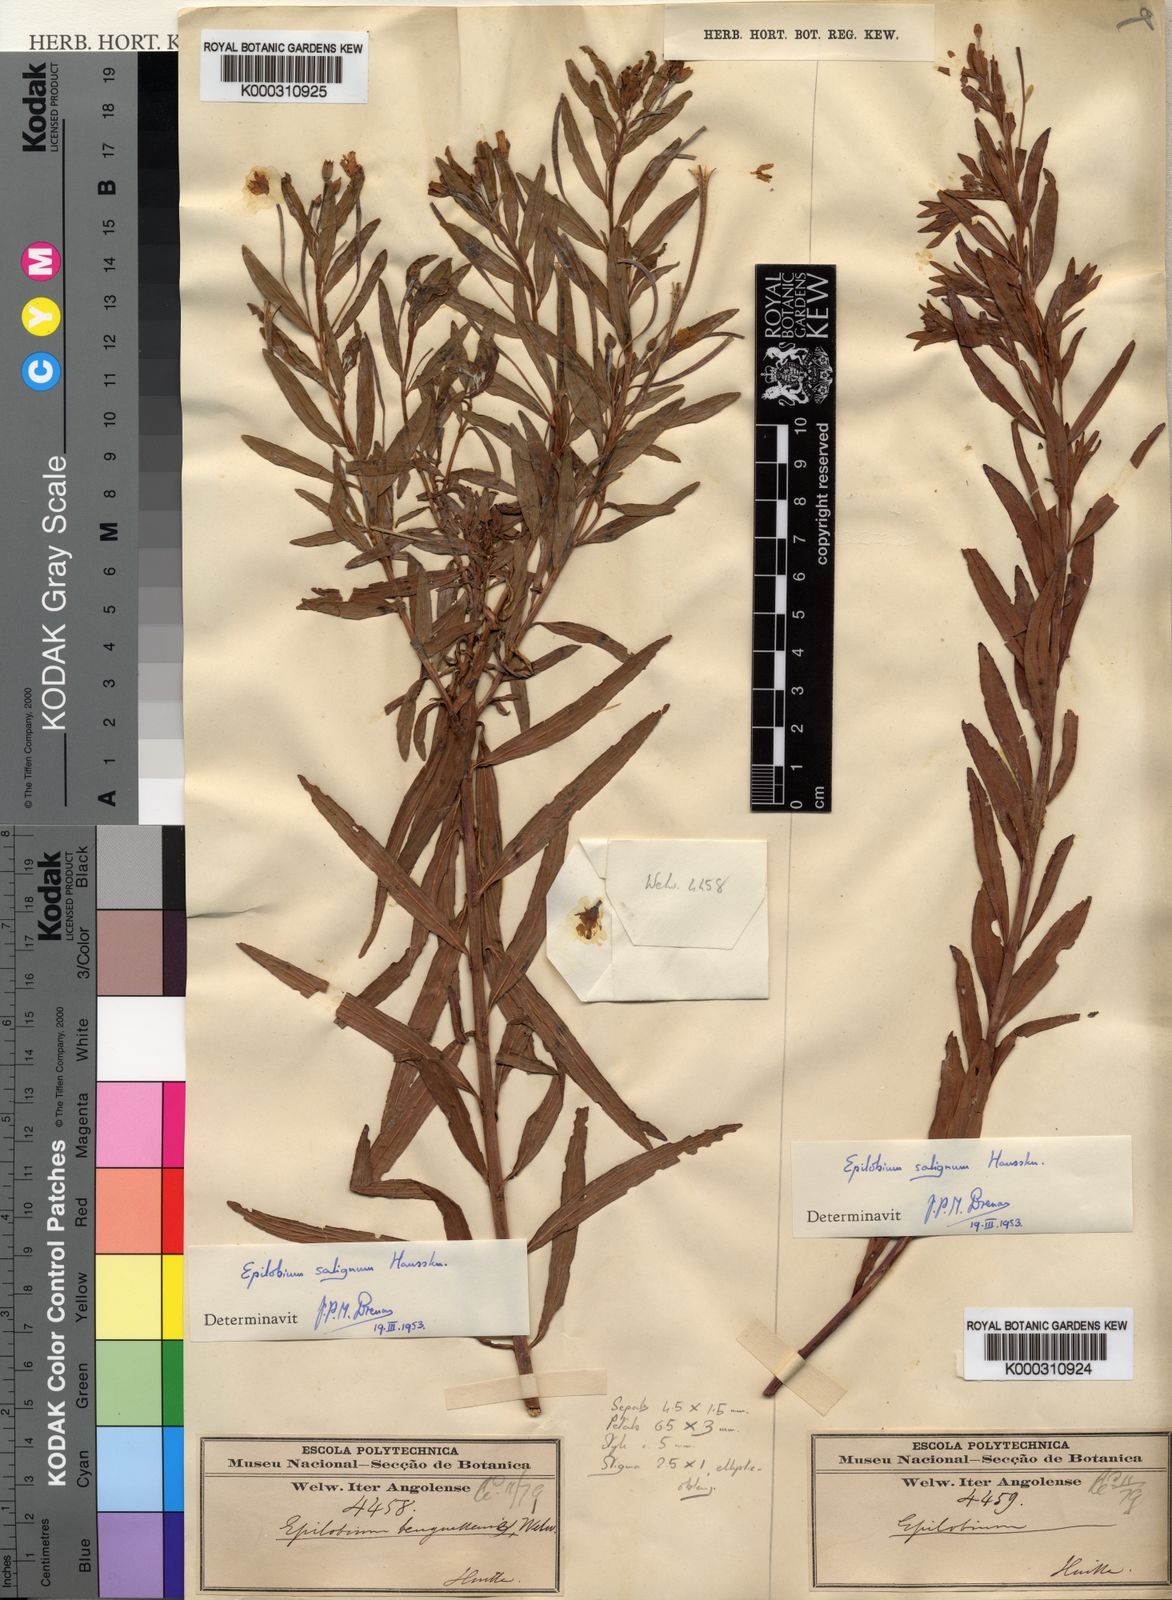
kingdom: Plantae
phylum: Tracheophyta
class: Magnoliopsida
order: Myrtales
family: Onagraceae
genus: Epilobium
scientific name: Epilobium salignum
